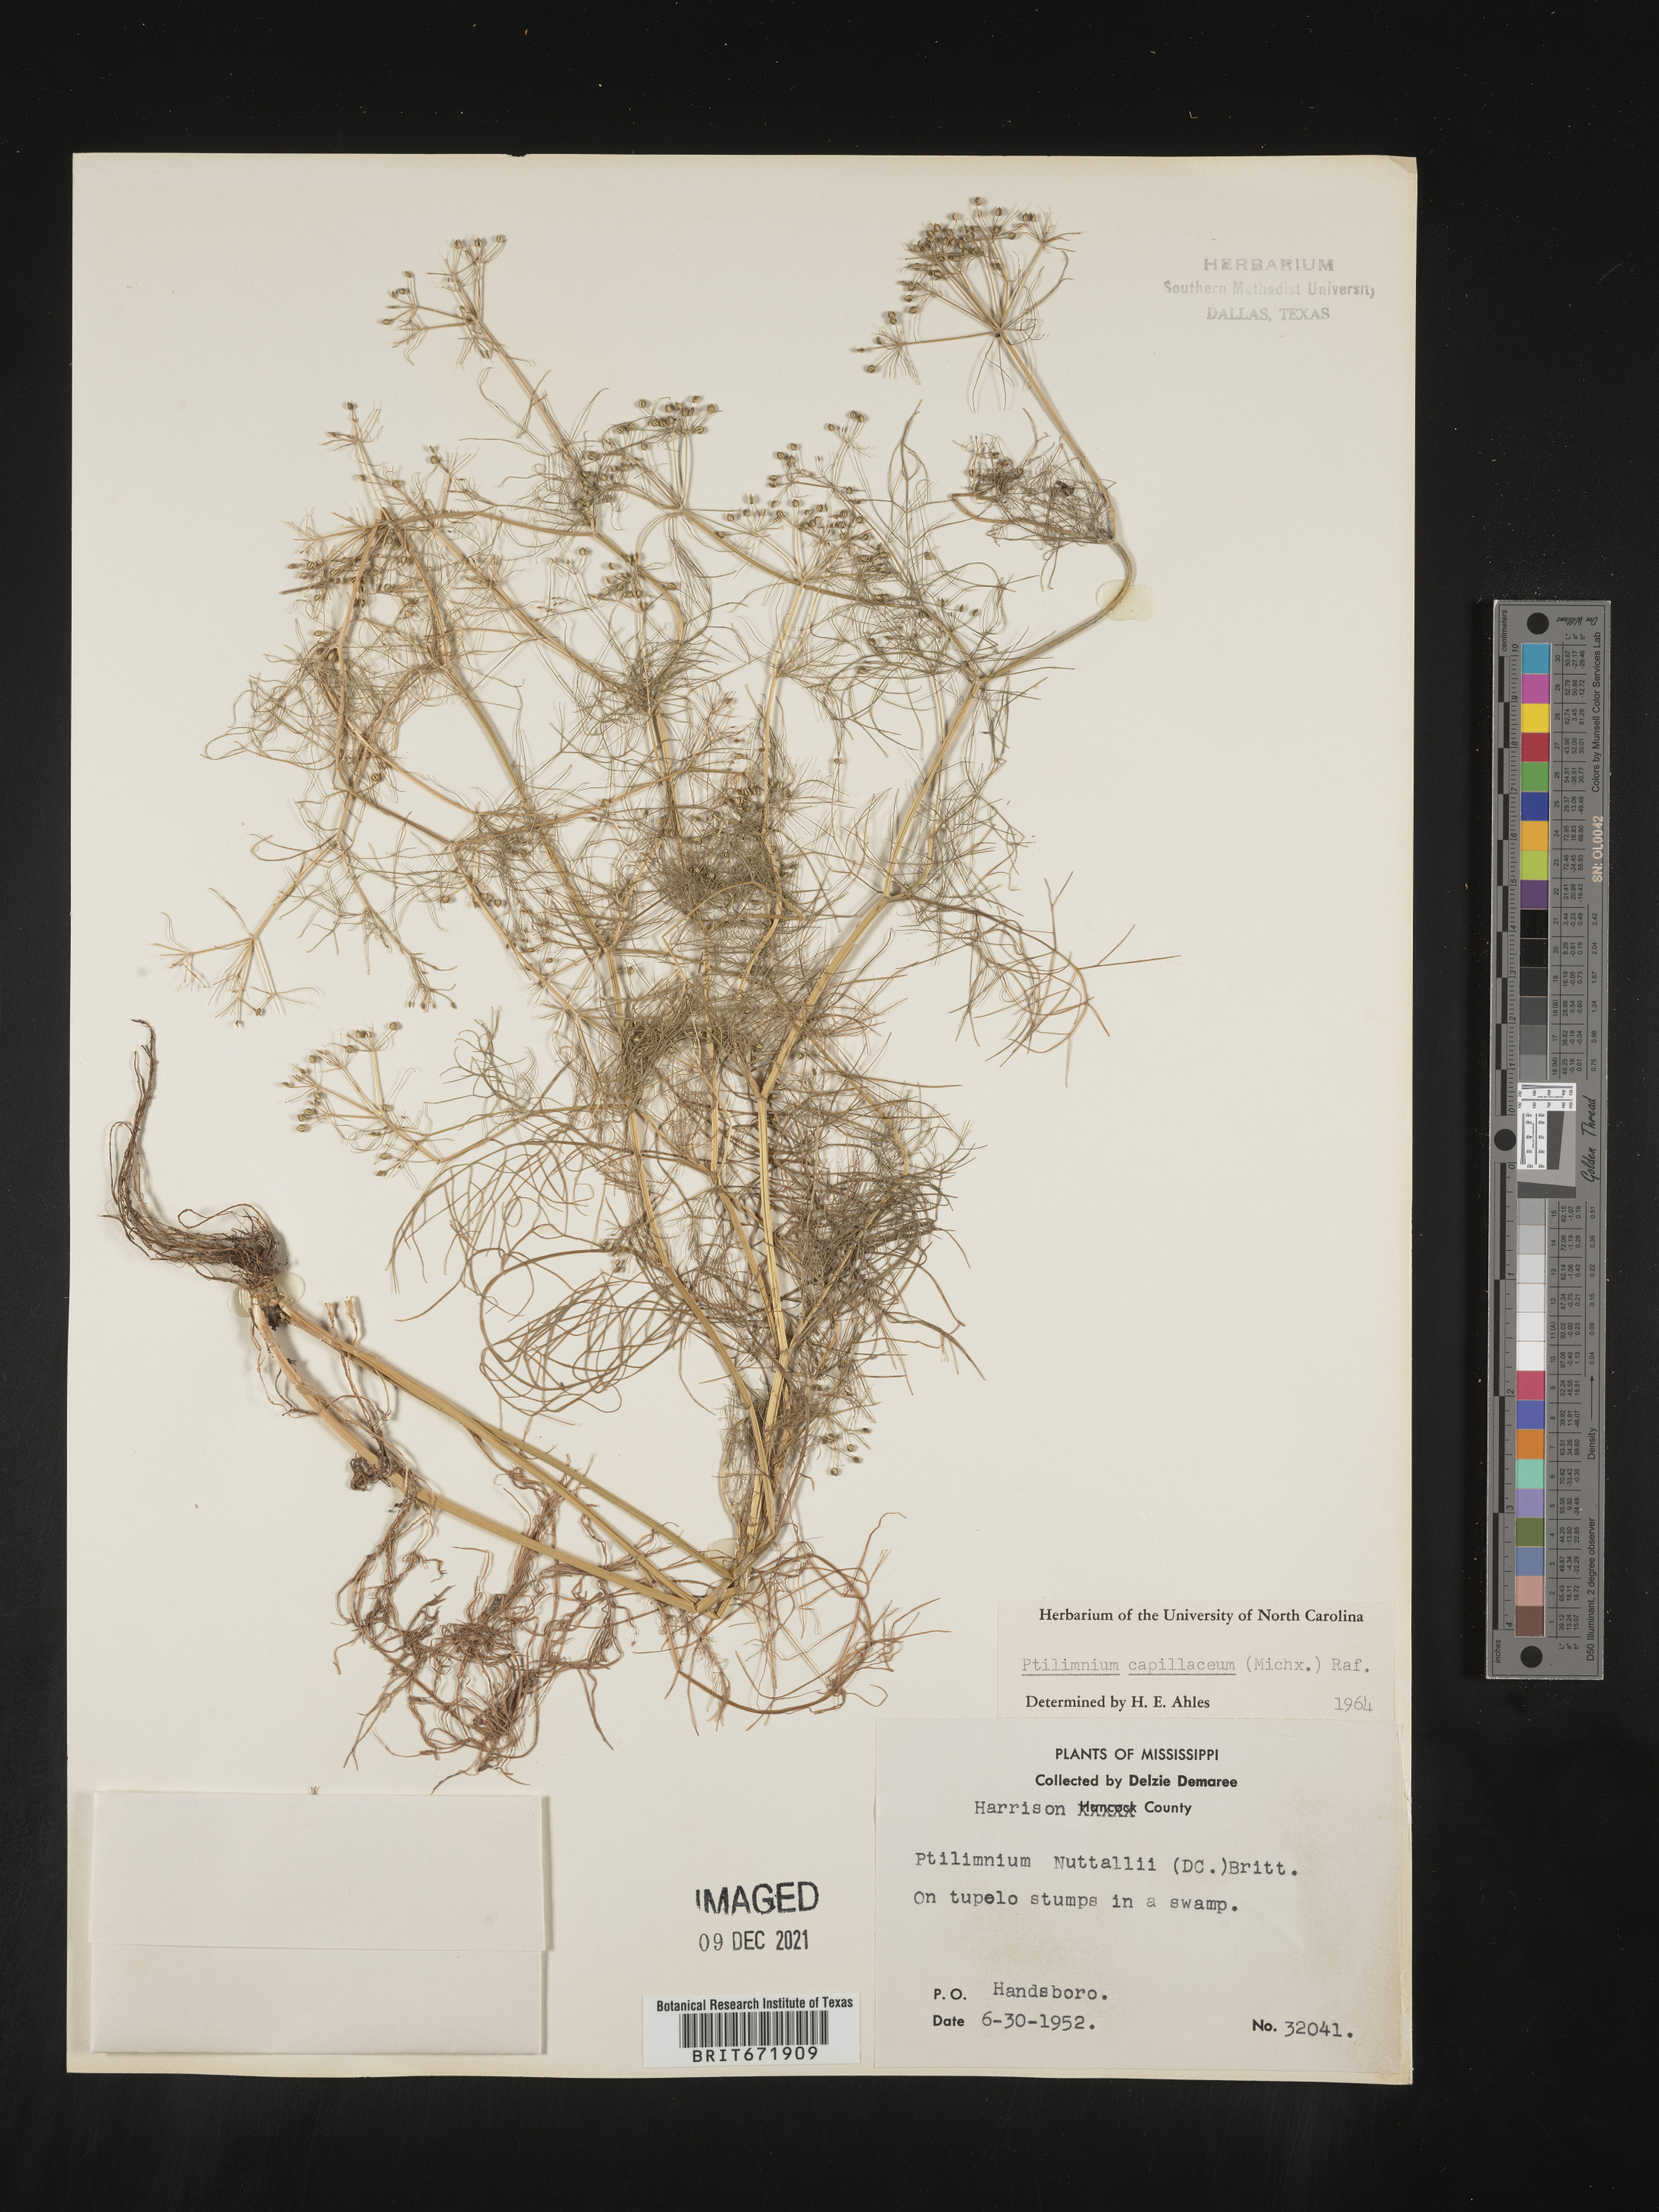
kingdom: Plantae
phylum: Tracheophyta
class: Magnoliopsida
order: Apiales
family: Apiaceae
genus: Ptilimnium
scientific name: Ptilimnium capillaceum
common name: Herbwilliam
